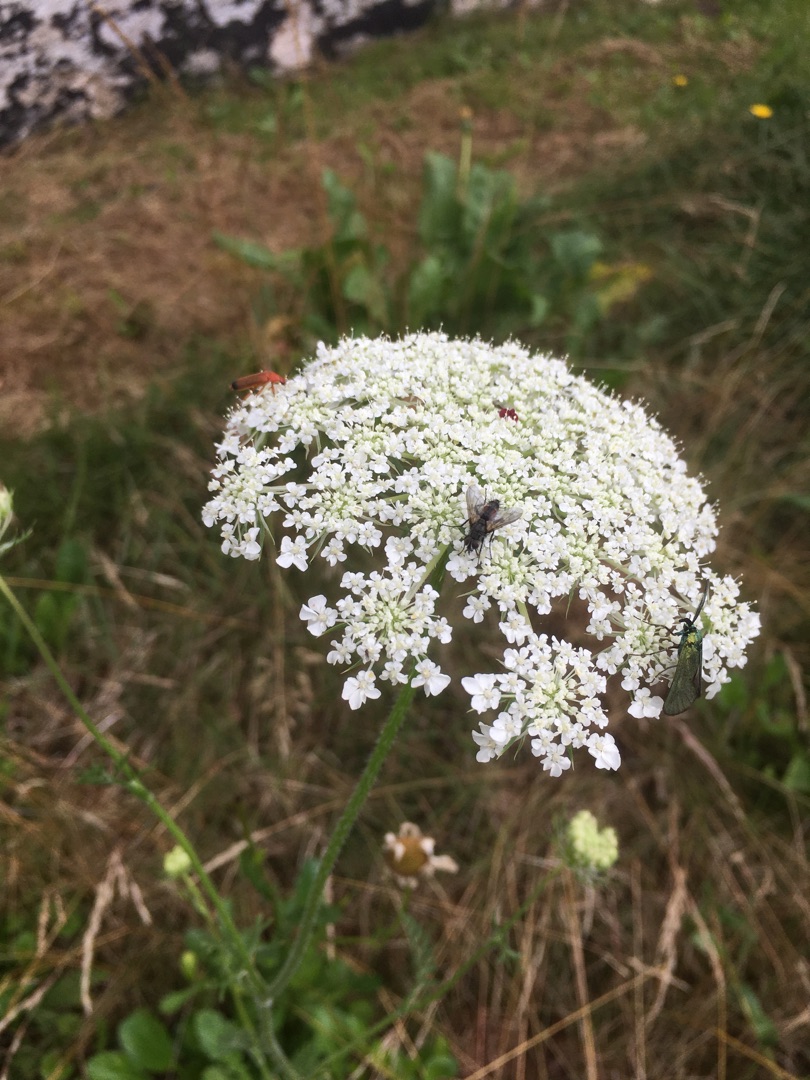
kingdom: Plantae
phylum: Tracheophyta
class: Magnoliopsida
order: Apiales
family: Apiaceae
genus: Daucus
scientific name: Daucus carota
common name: Vild gulerod
